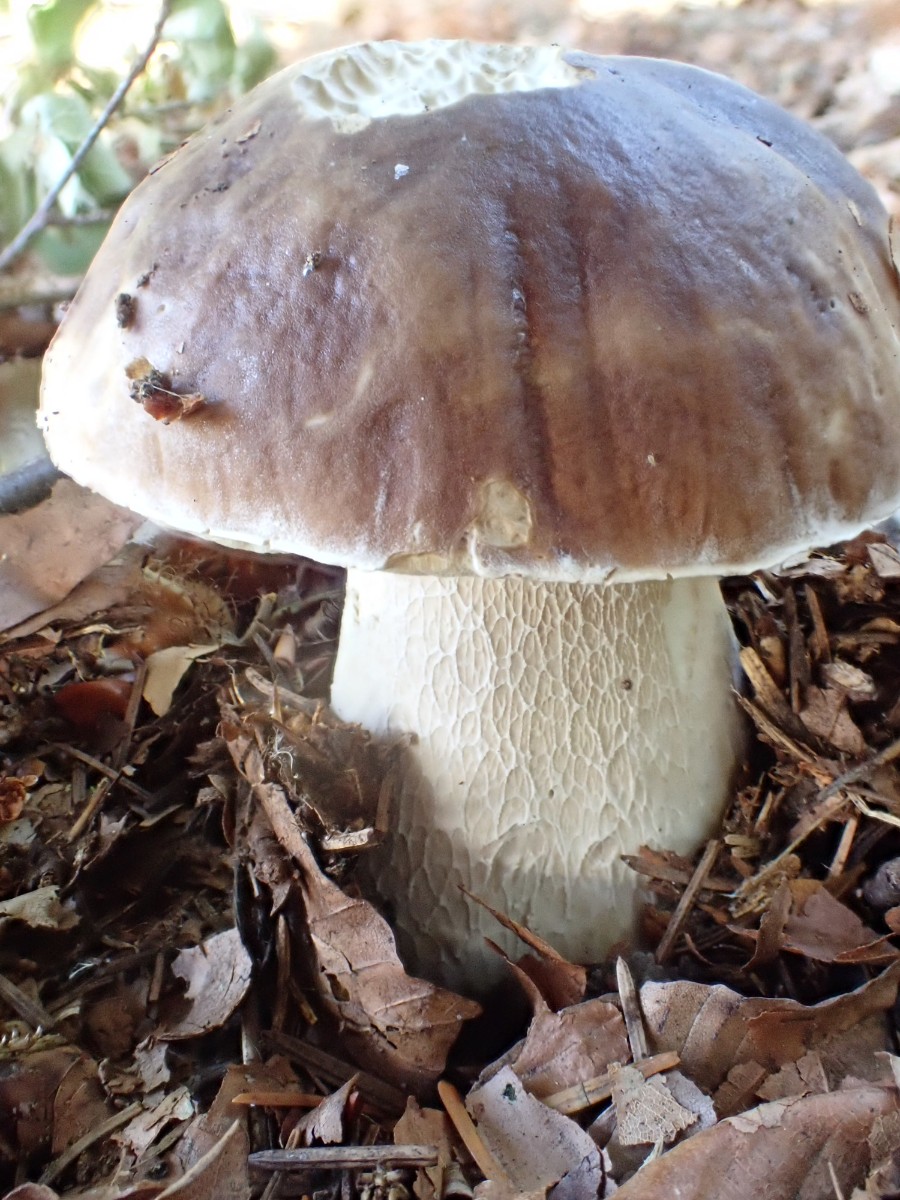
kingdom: Fungi
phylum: Basidiomycota
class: Agaricomycetes
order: Boletales
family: Boletaceae
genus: Boletus
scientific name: Boletus edulis
